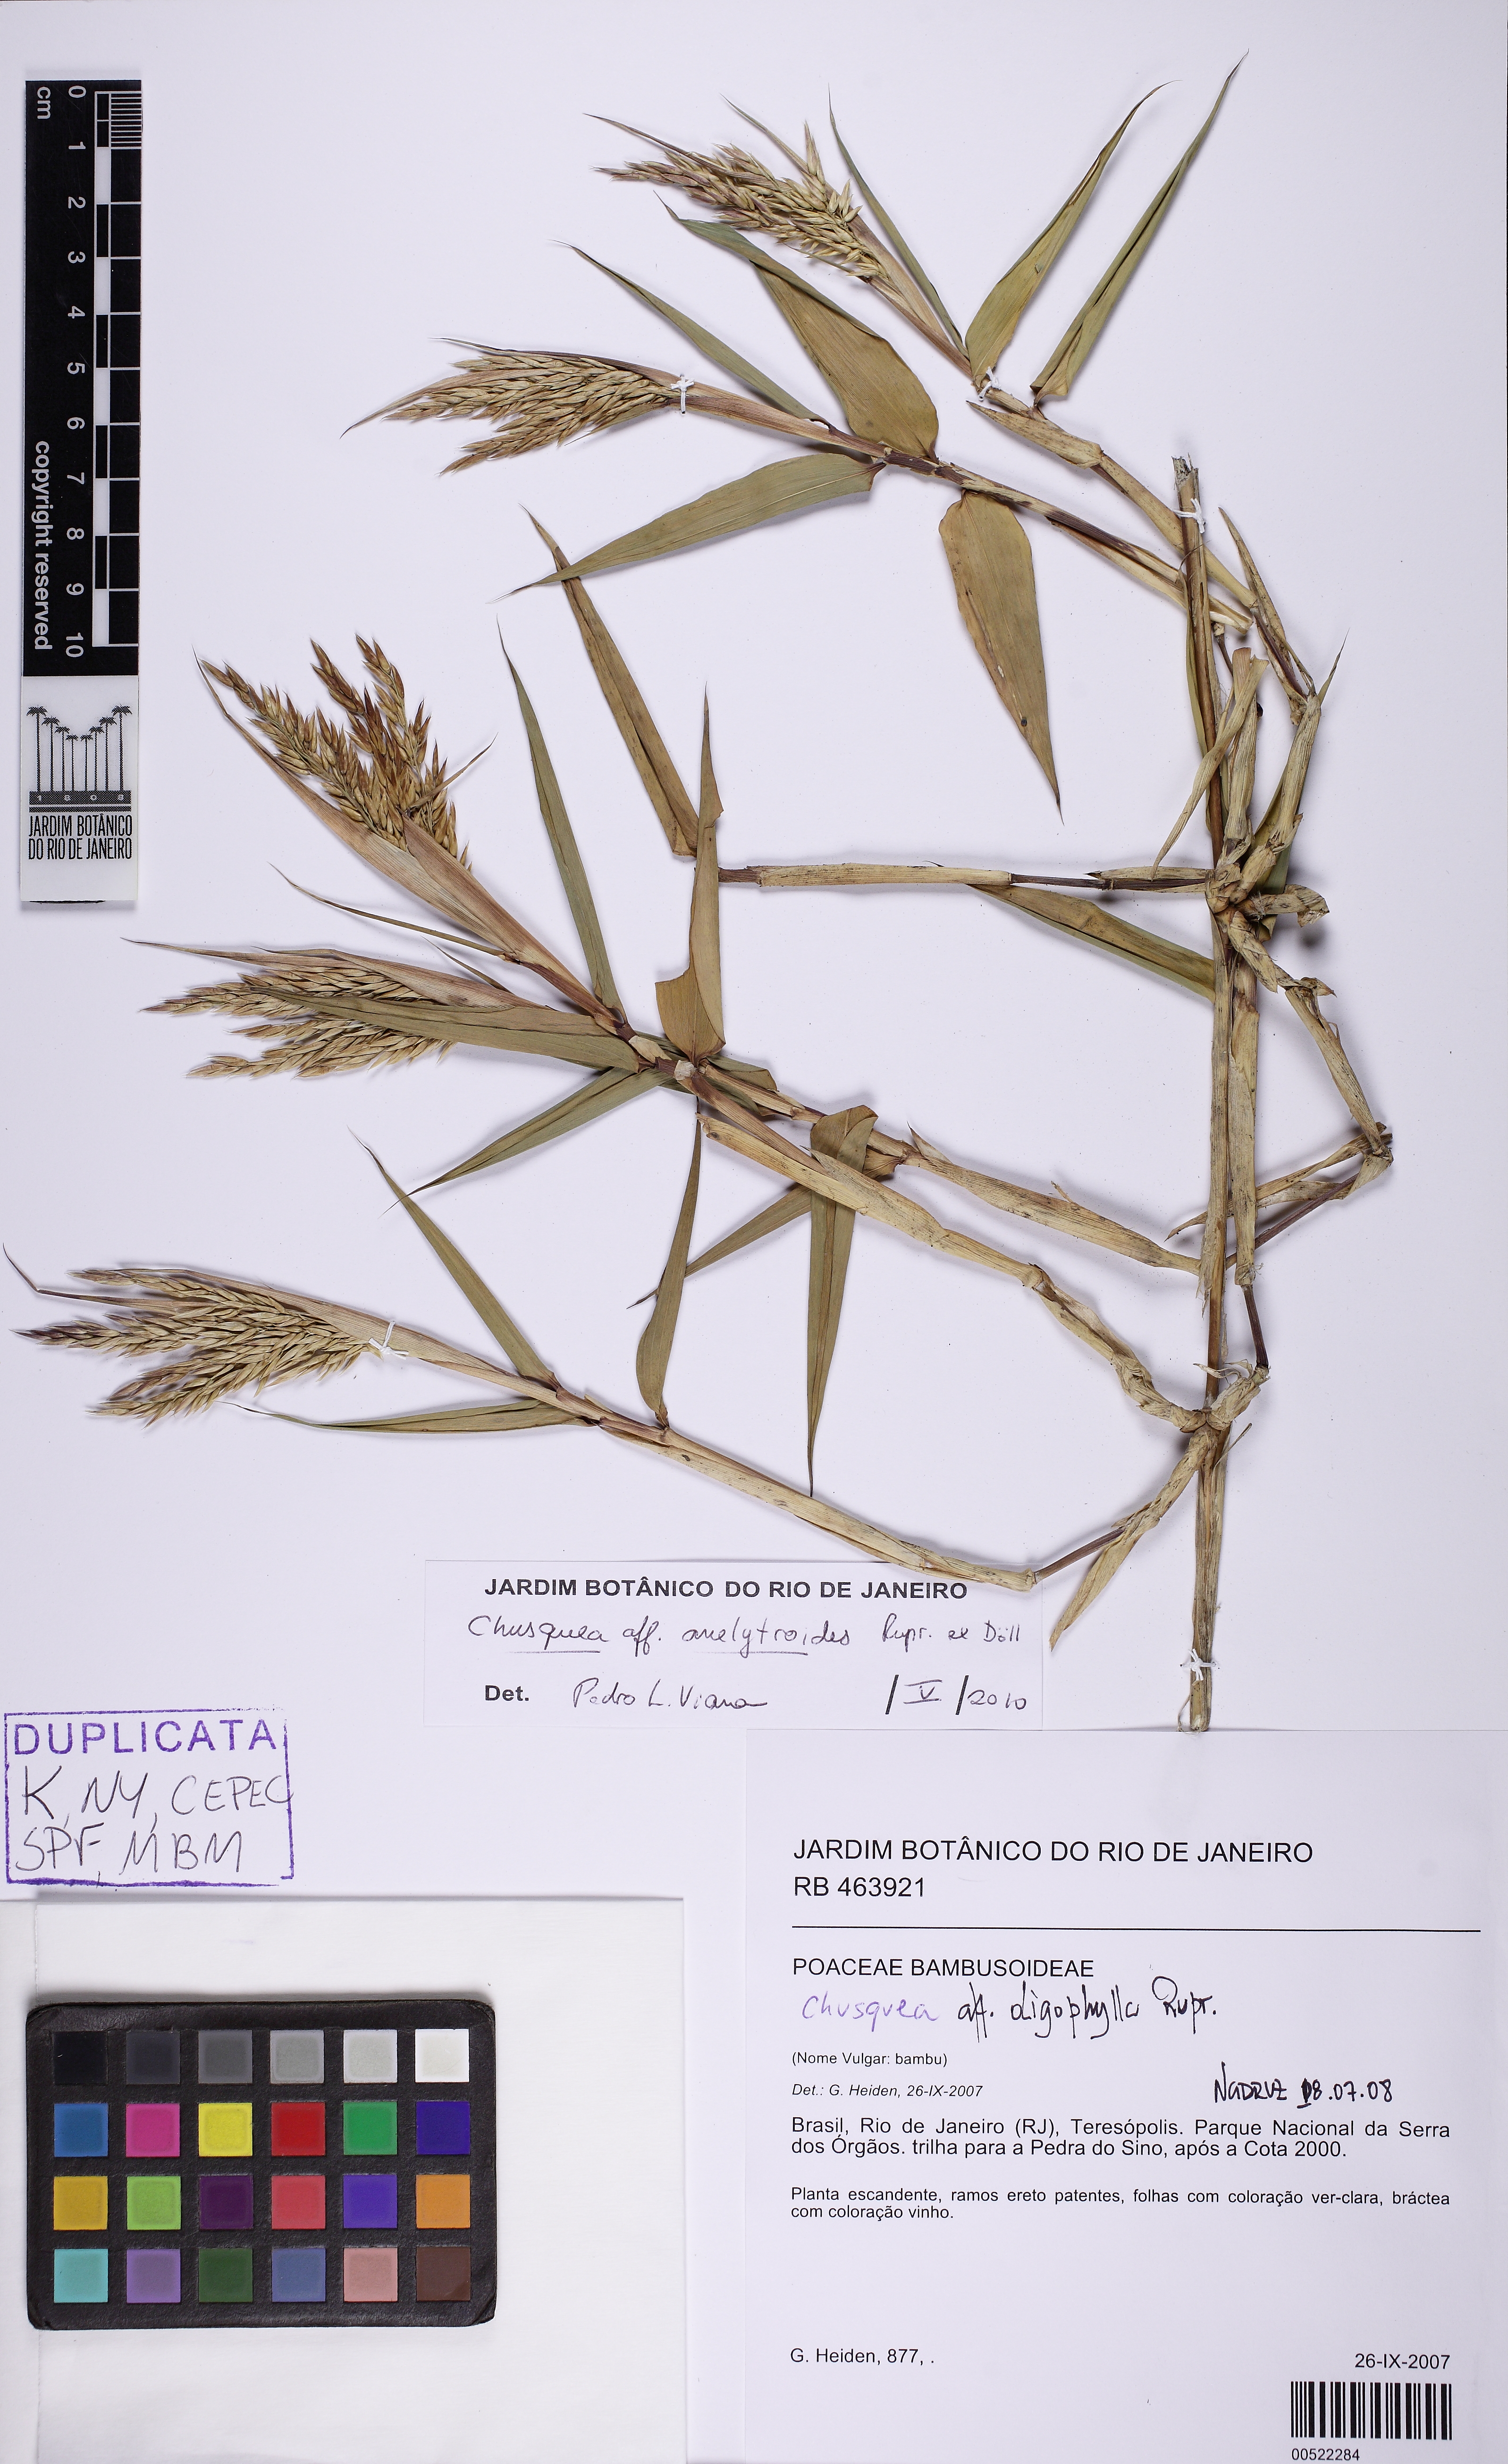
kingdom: Plantae
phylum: Tracheophyta
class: Liliopsida
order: Poales
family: Poaceae
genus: Chusquea
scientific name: Chusquea anelythroides
